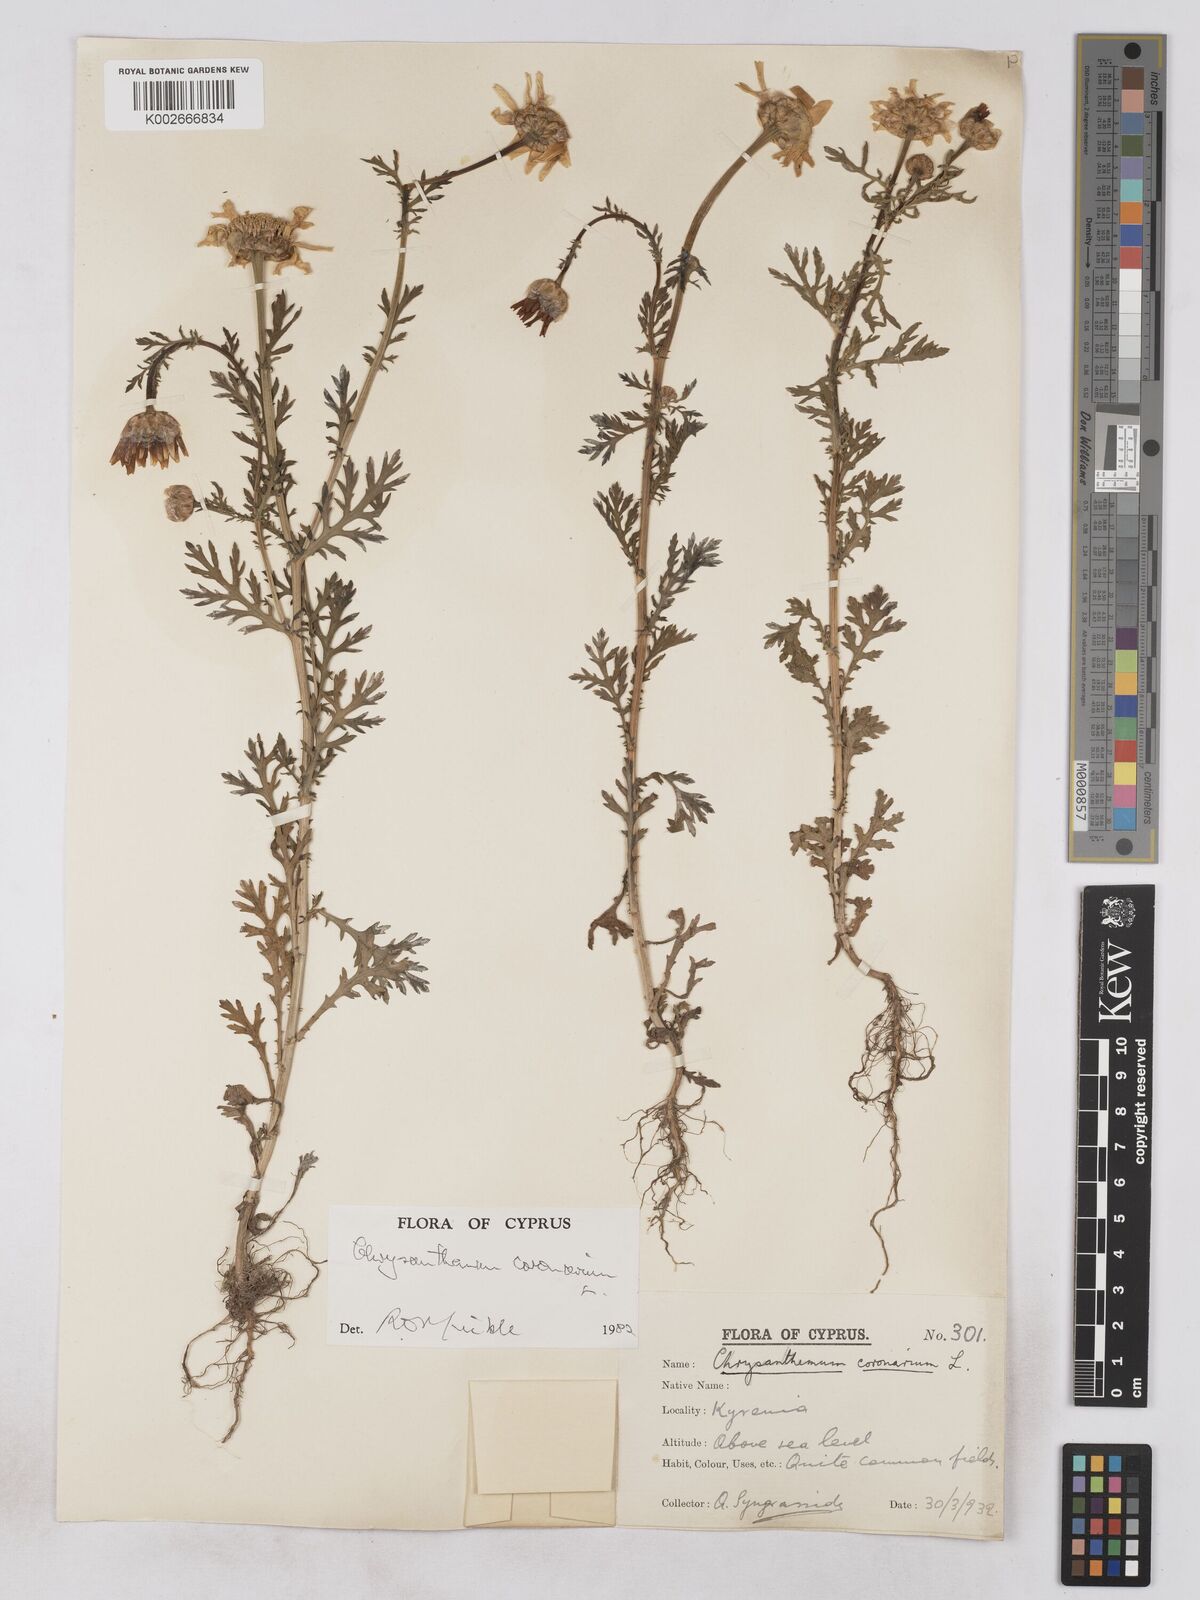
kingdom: Plantae
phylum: Tracheophyta
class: Magnoliopsida
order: Asterales
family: Asteraceae
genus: Glebionis
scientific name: Glebionis coronaria
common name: Crowndaisy
